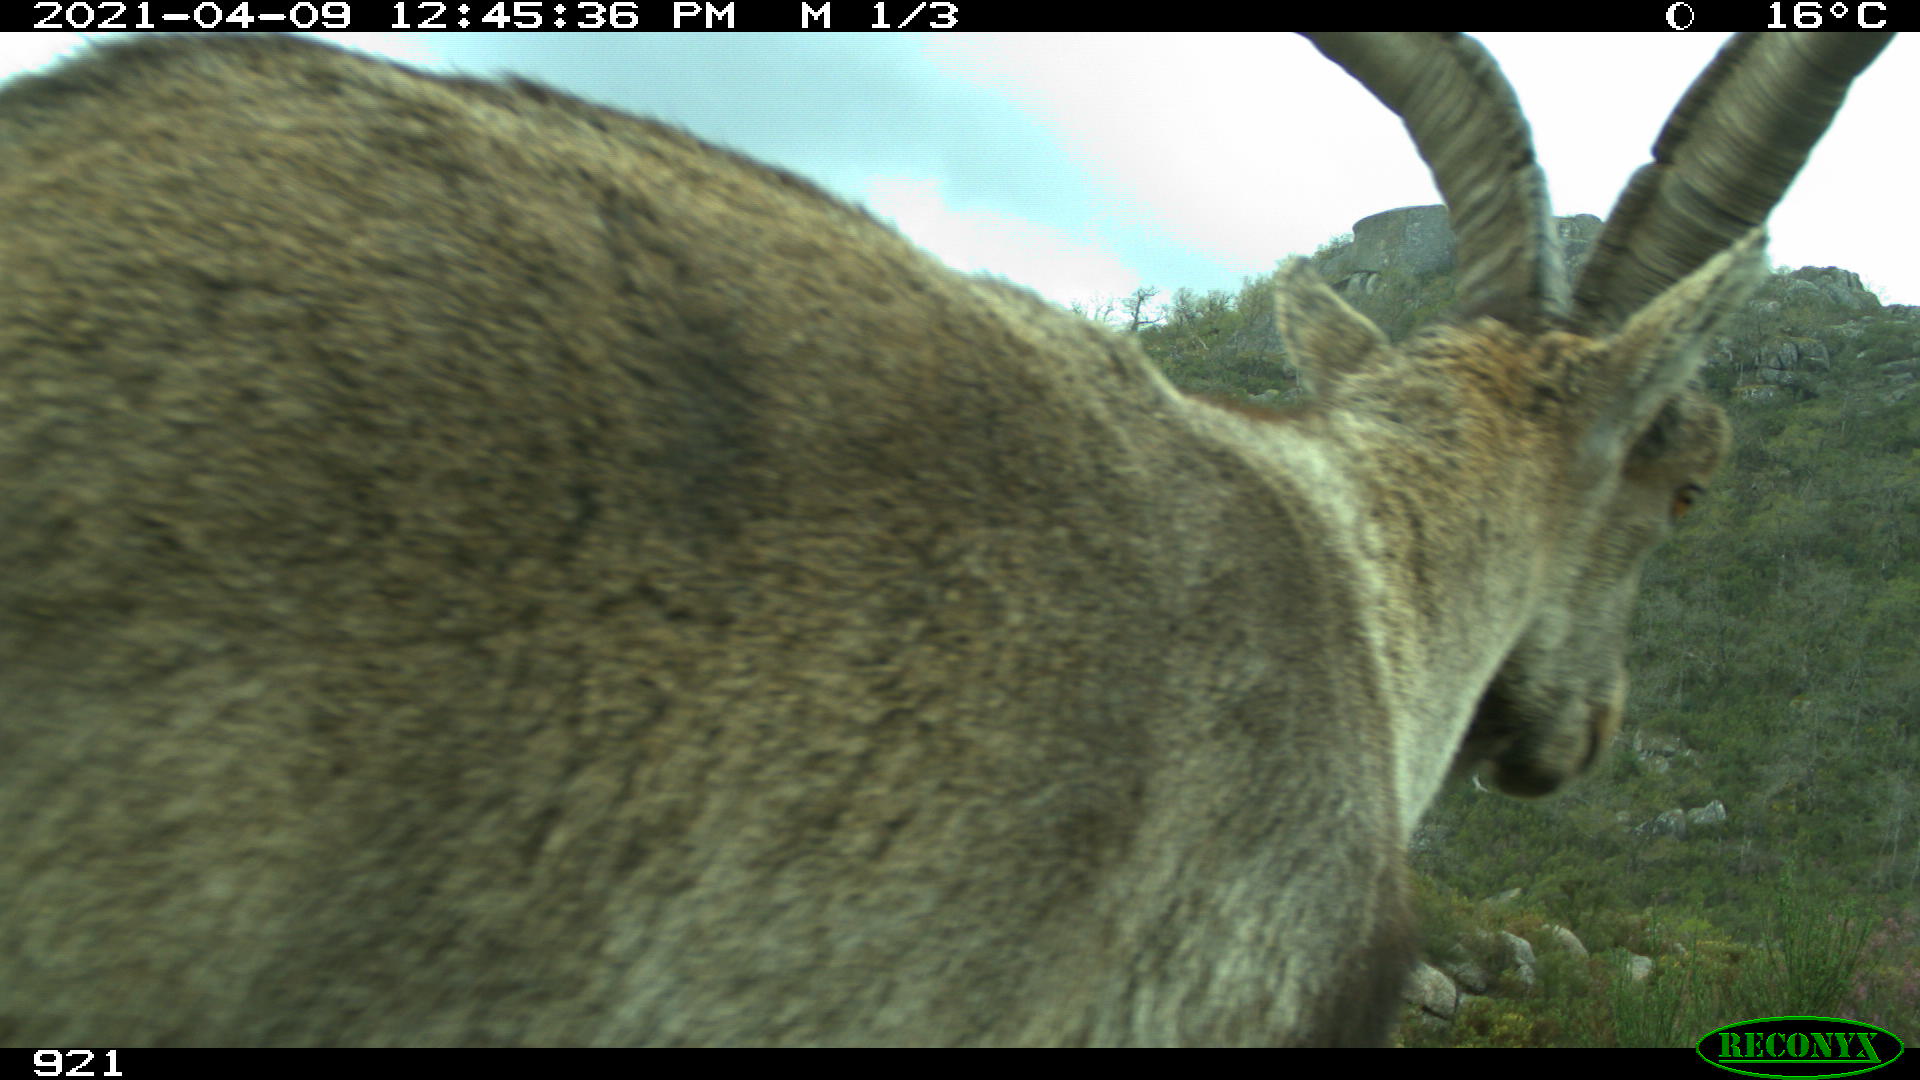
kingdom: Animalia
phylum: Chordata
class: Mammalia
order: Artiodactyla
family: Bovidae
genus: Capra
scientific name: Capra pyrenaica
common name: Spanish ibex
